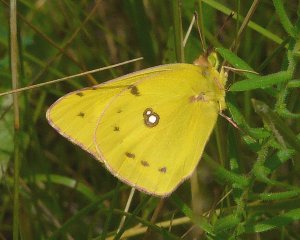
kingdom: Animalia
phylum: Arthropoda
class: Insecta
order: Lepidoptera
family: Pieridae
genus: Colias
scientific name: Colias philodice
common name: Clouded Sulphur
